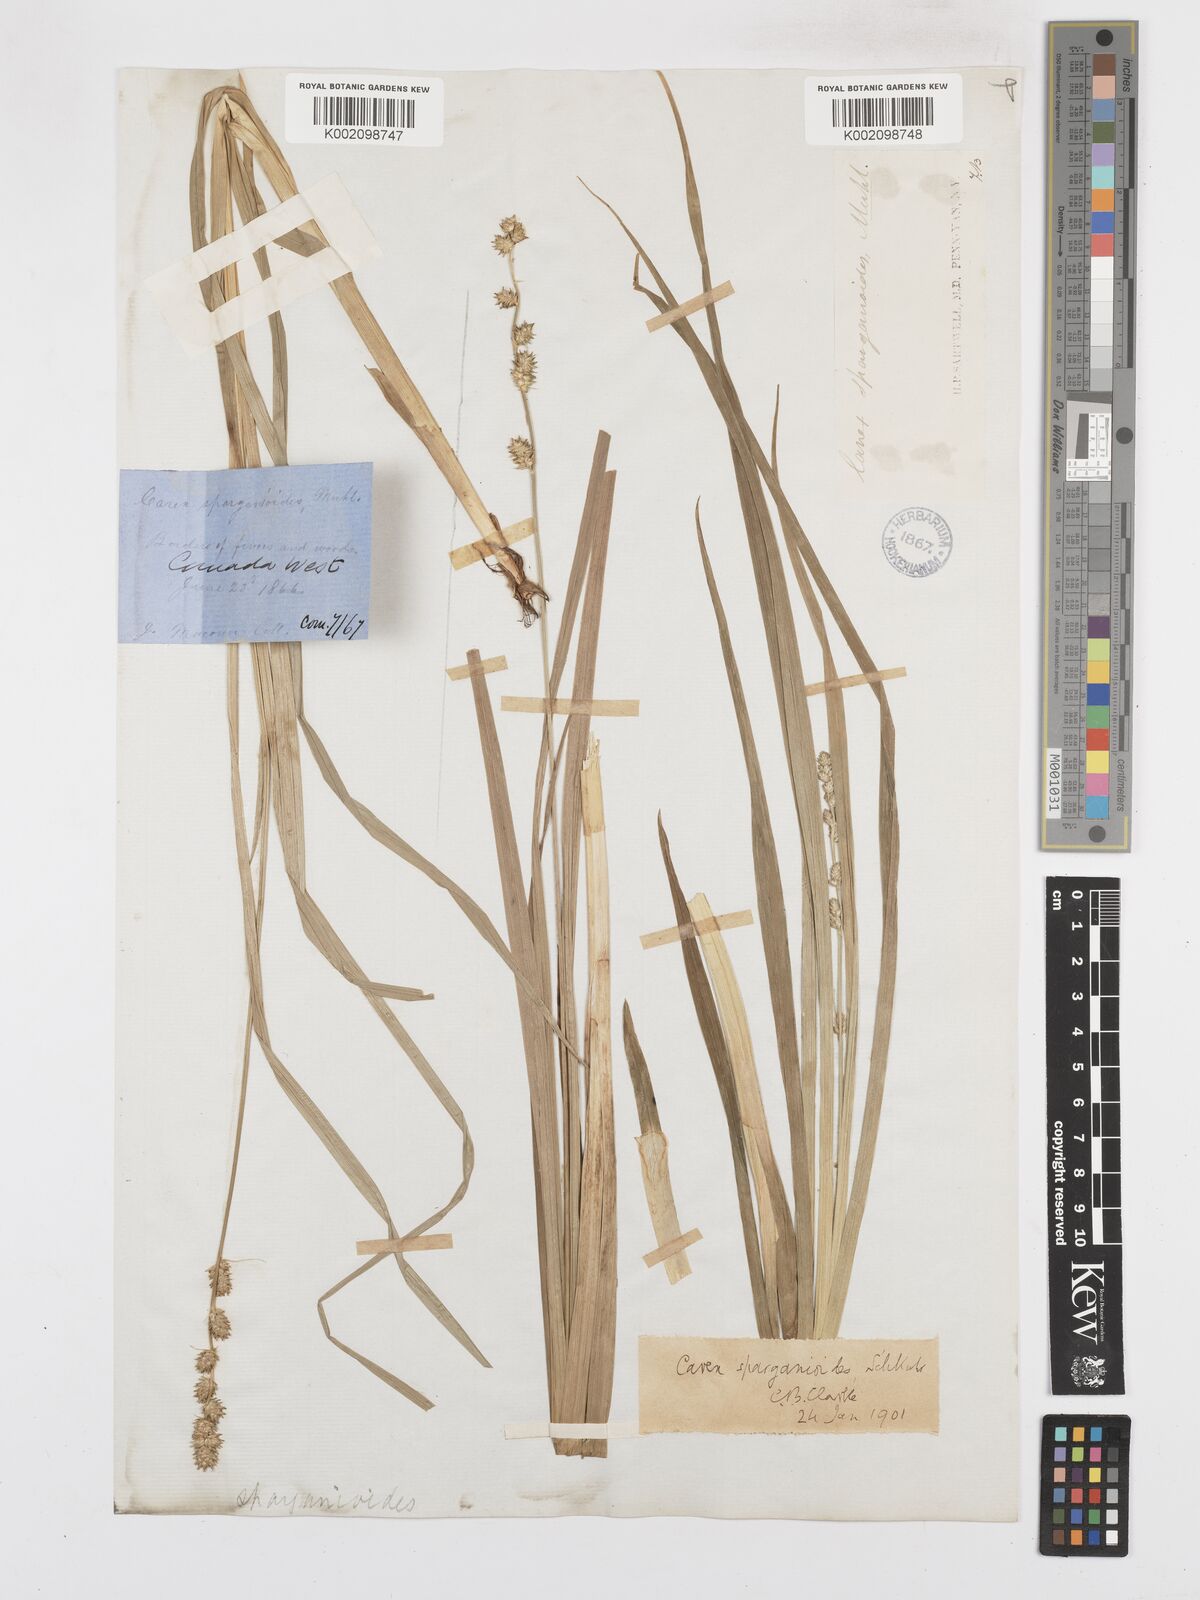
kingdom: Plantae
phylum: Tracheophyta
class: Liliopsida
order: Poales
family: Cyperaceae
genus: Carex
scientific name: Carex sparganioides
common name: Burreed sedge
